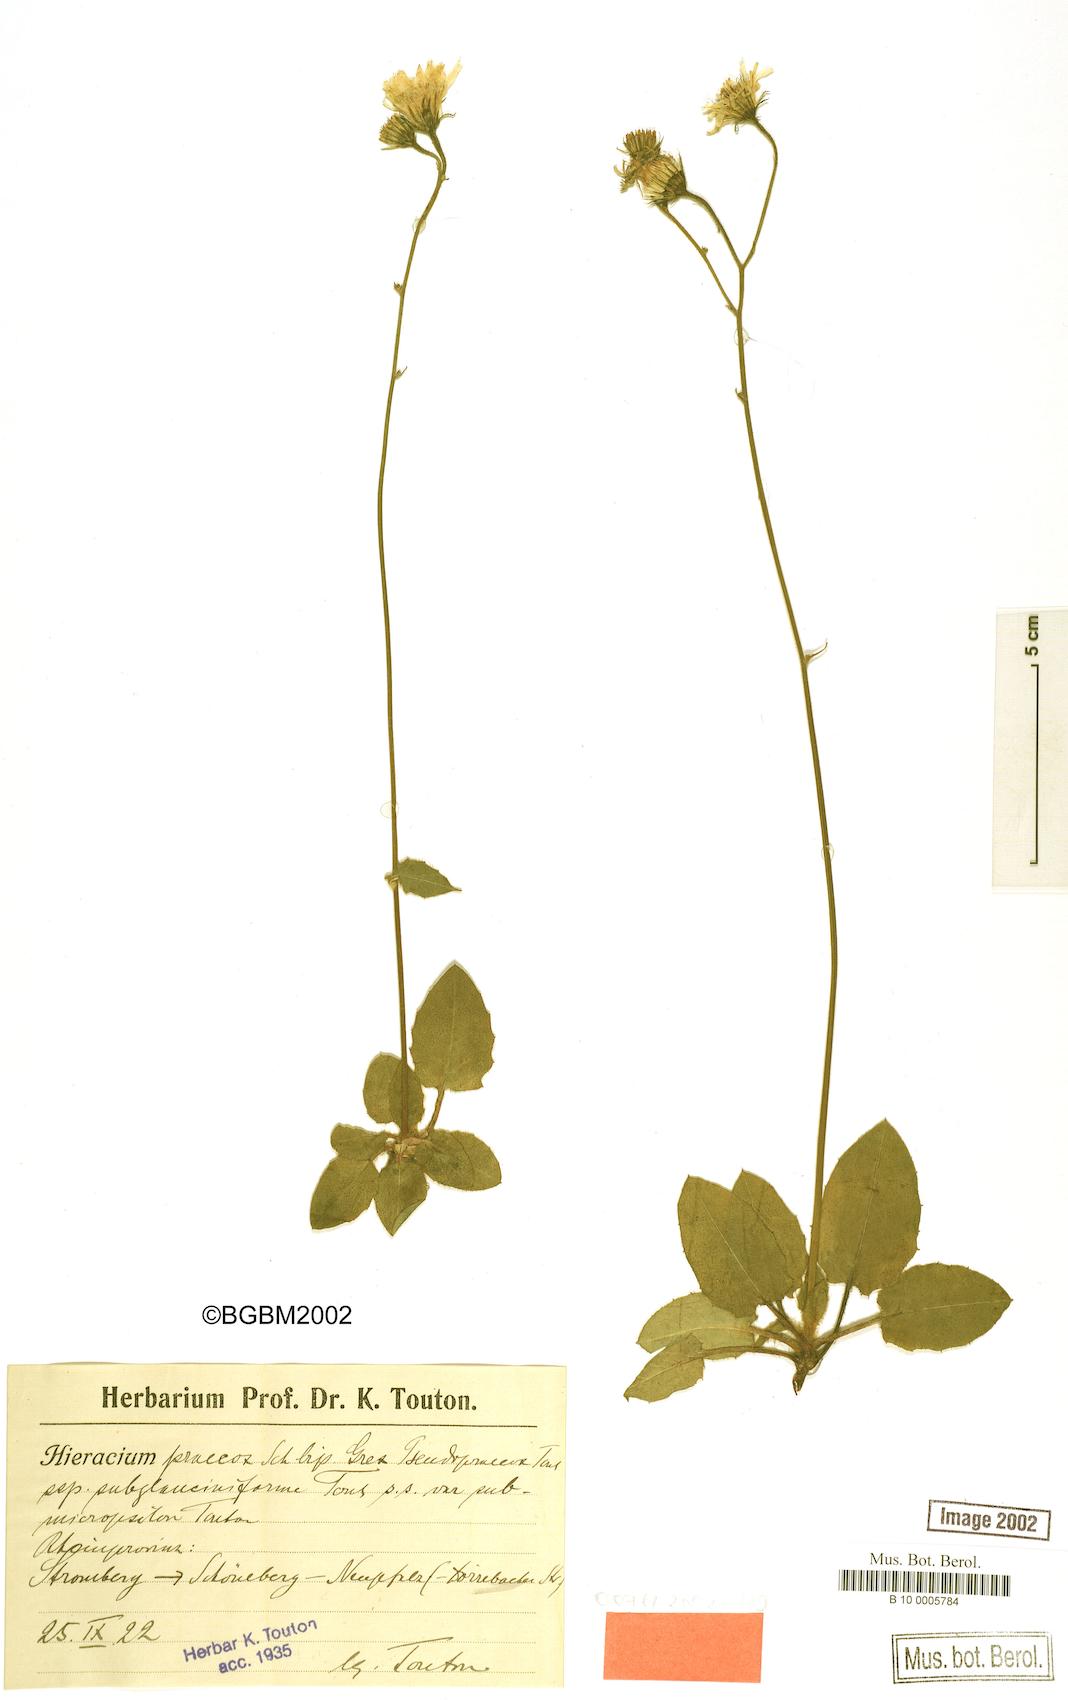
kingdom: Plantae
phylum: Tracheophyta
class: Magnoliopsida
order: Asterales
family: Asteraceae
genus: Hieracium
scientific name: Hieracium praecox
